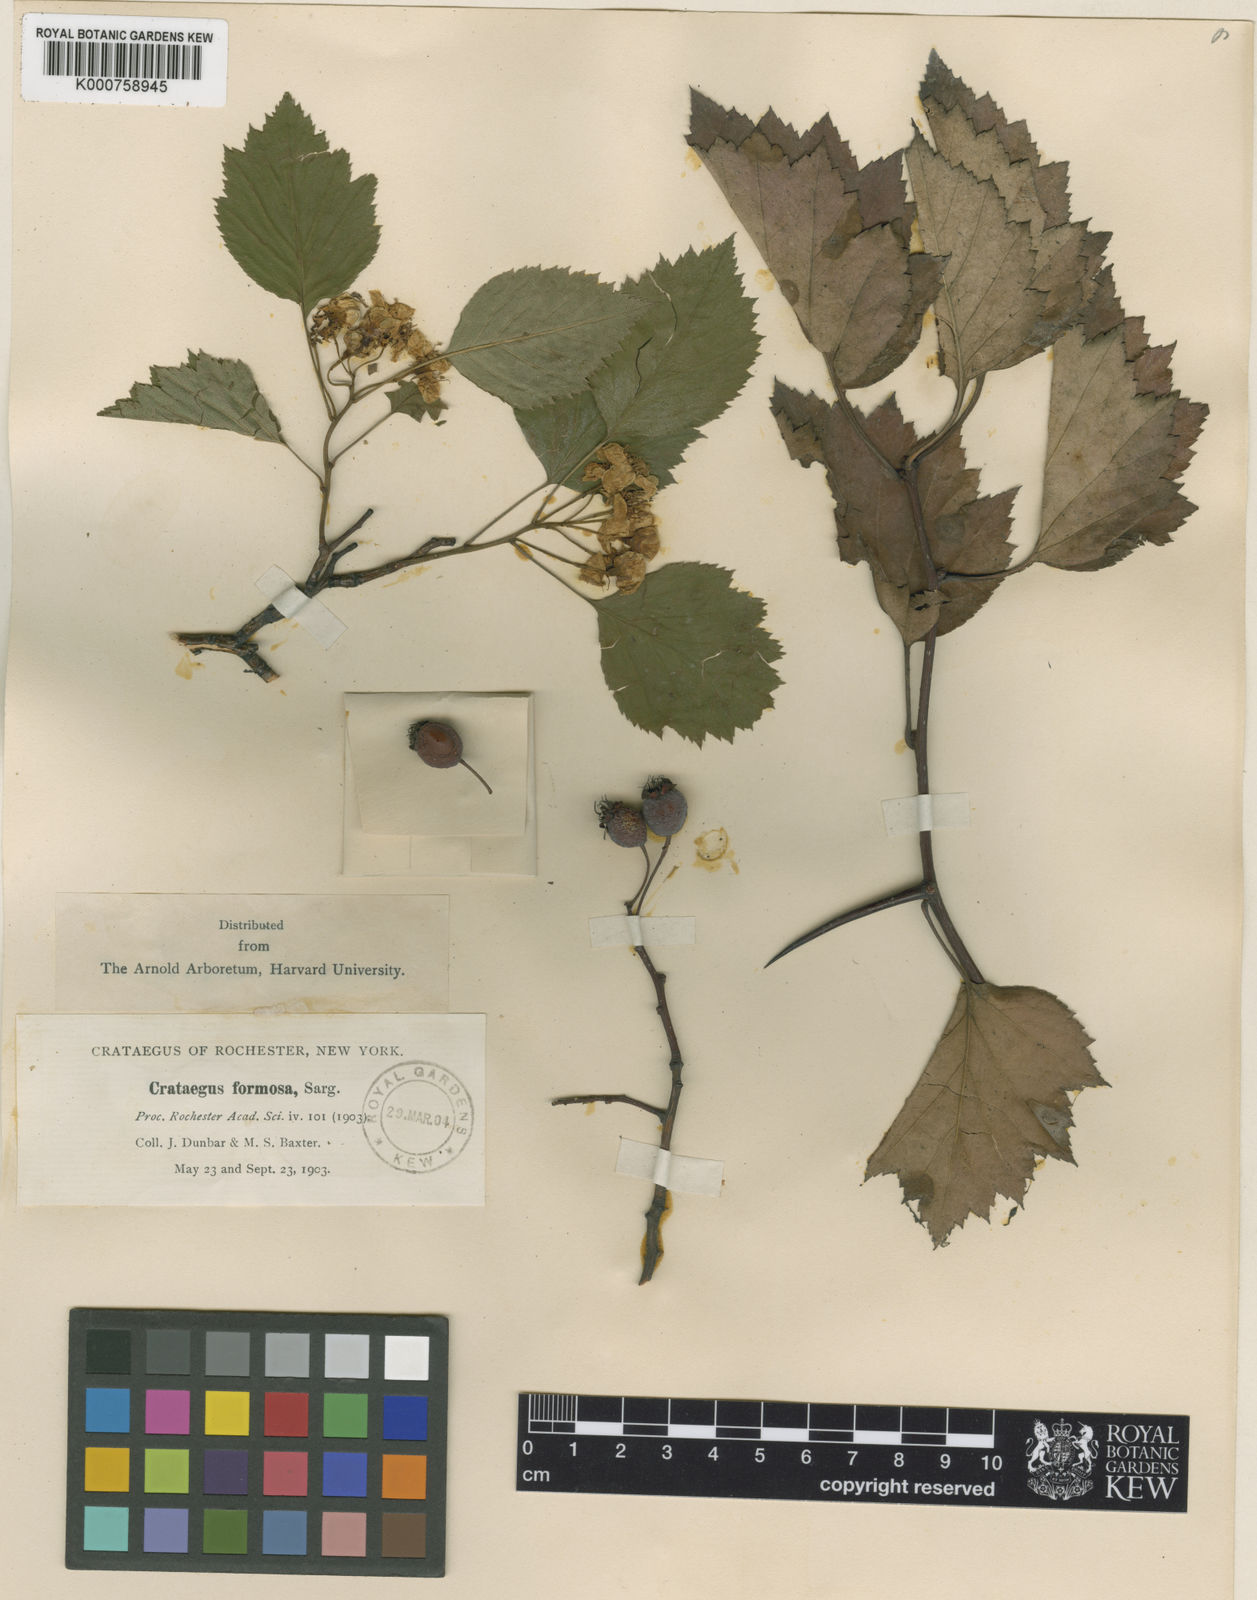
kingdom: Plantae
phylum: Tracheophyta
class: Magnoliopsida
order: Rosales
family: Rosaceae
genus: Crataegus
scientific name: Crataegus pruinosa
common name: Waxy-fruit hawthorn
